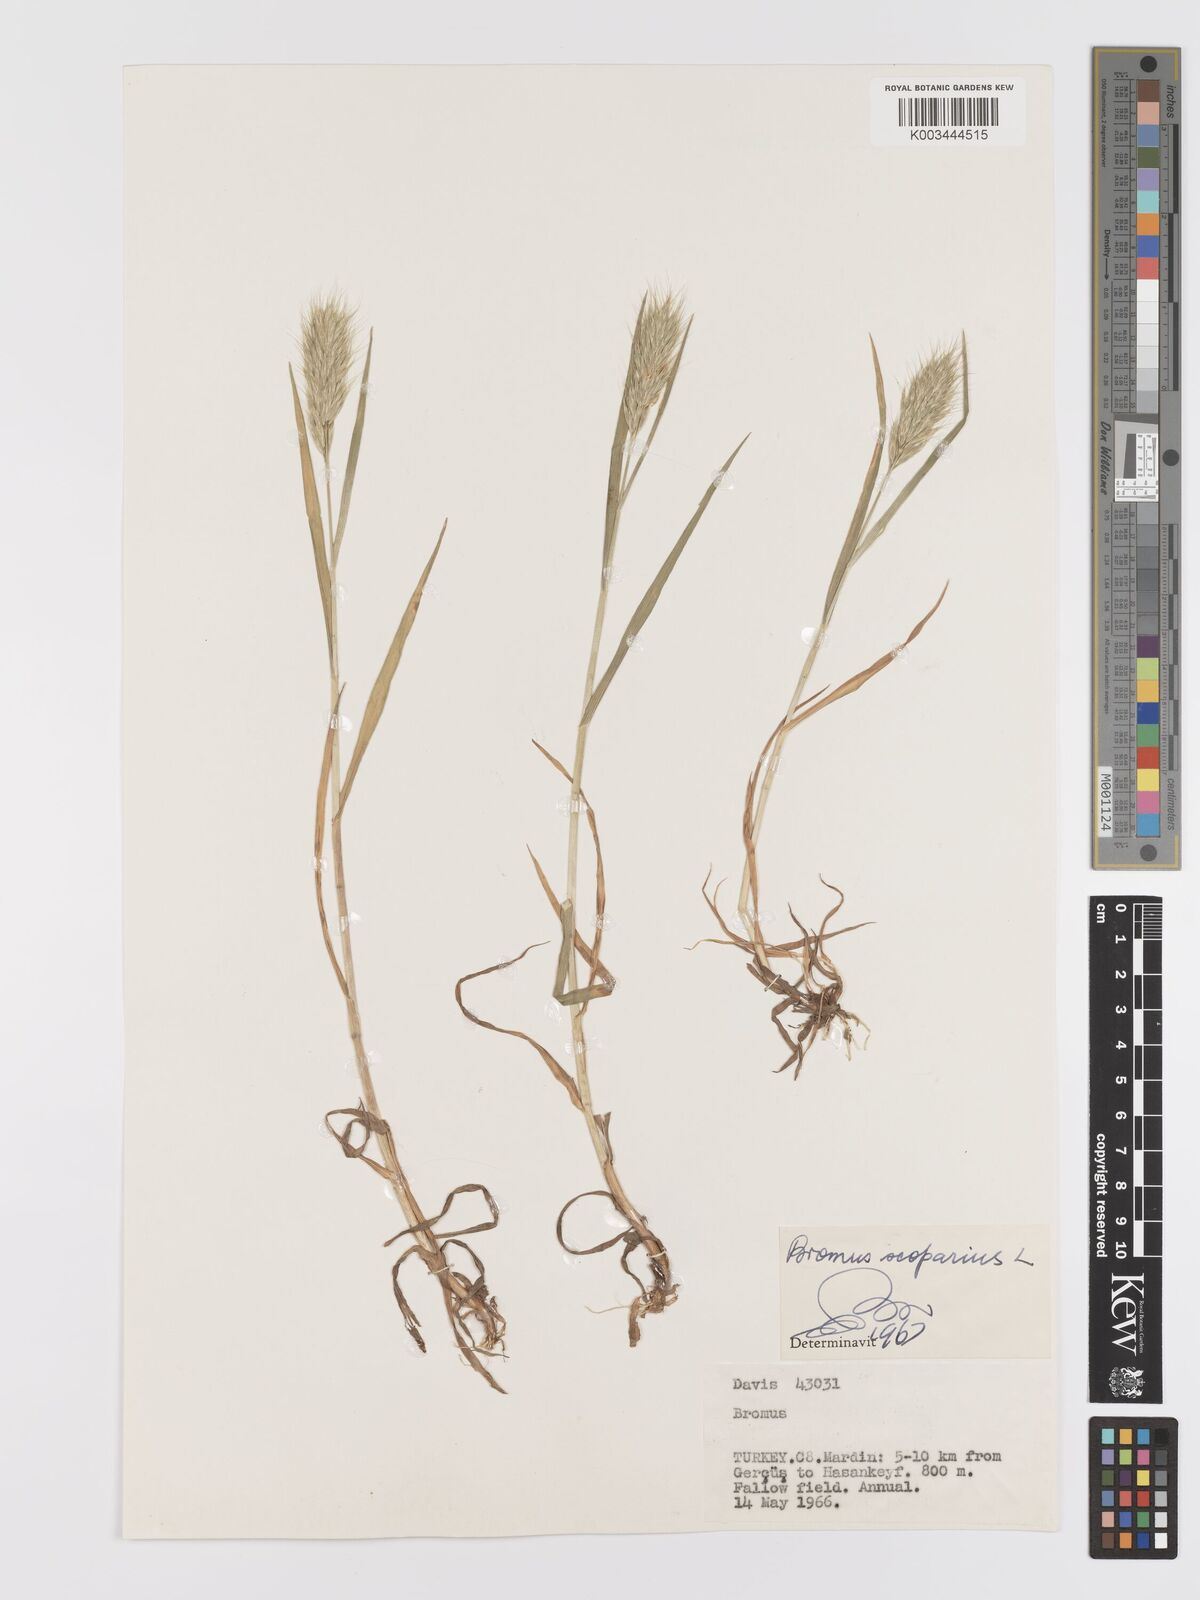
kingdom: Plantae
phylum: Tracheophyta
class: Liliopsida
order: Poales
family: Poaceae
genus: Bromus
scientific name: Bromus scoparius
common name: Broom brome
